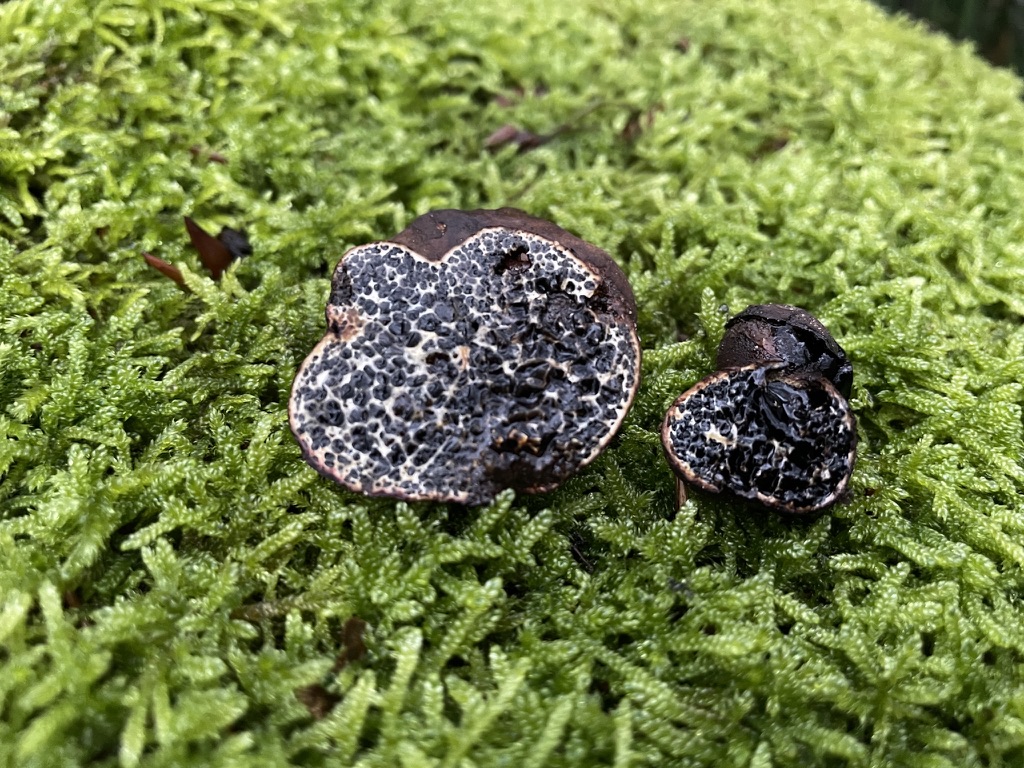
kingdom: Fungi
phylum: Basidiomycota
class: Agaricomycetes
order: Boletales
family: Paxillaceae
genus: Melanogaster
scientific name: Melanogaster ambiguus
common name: lille slimtrøffel
